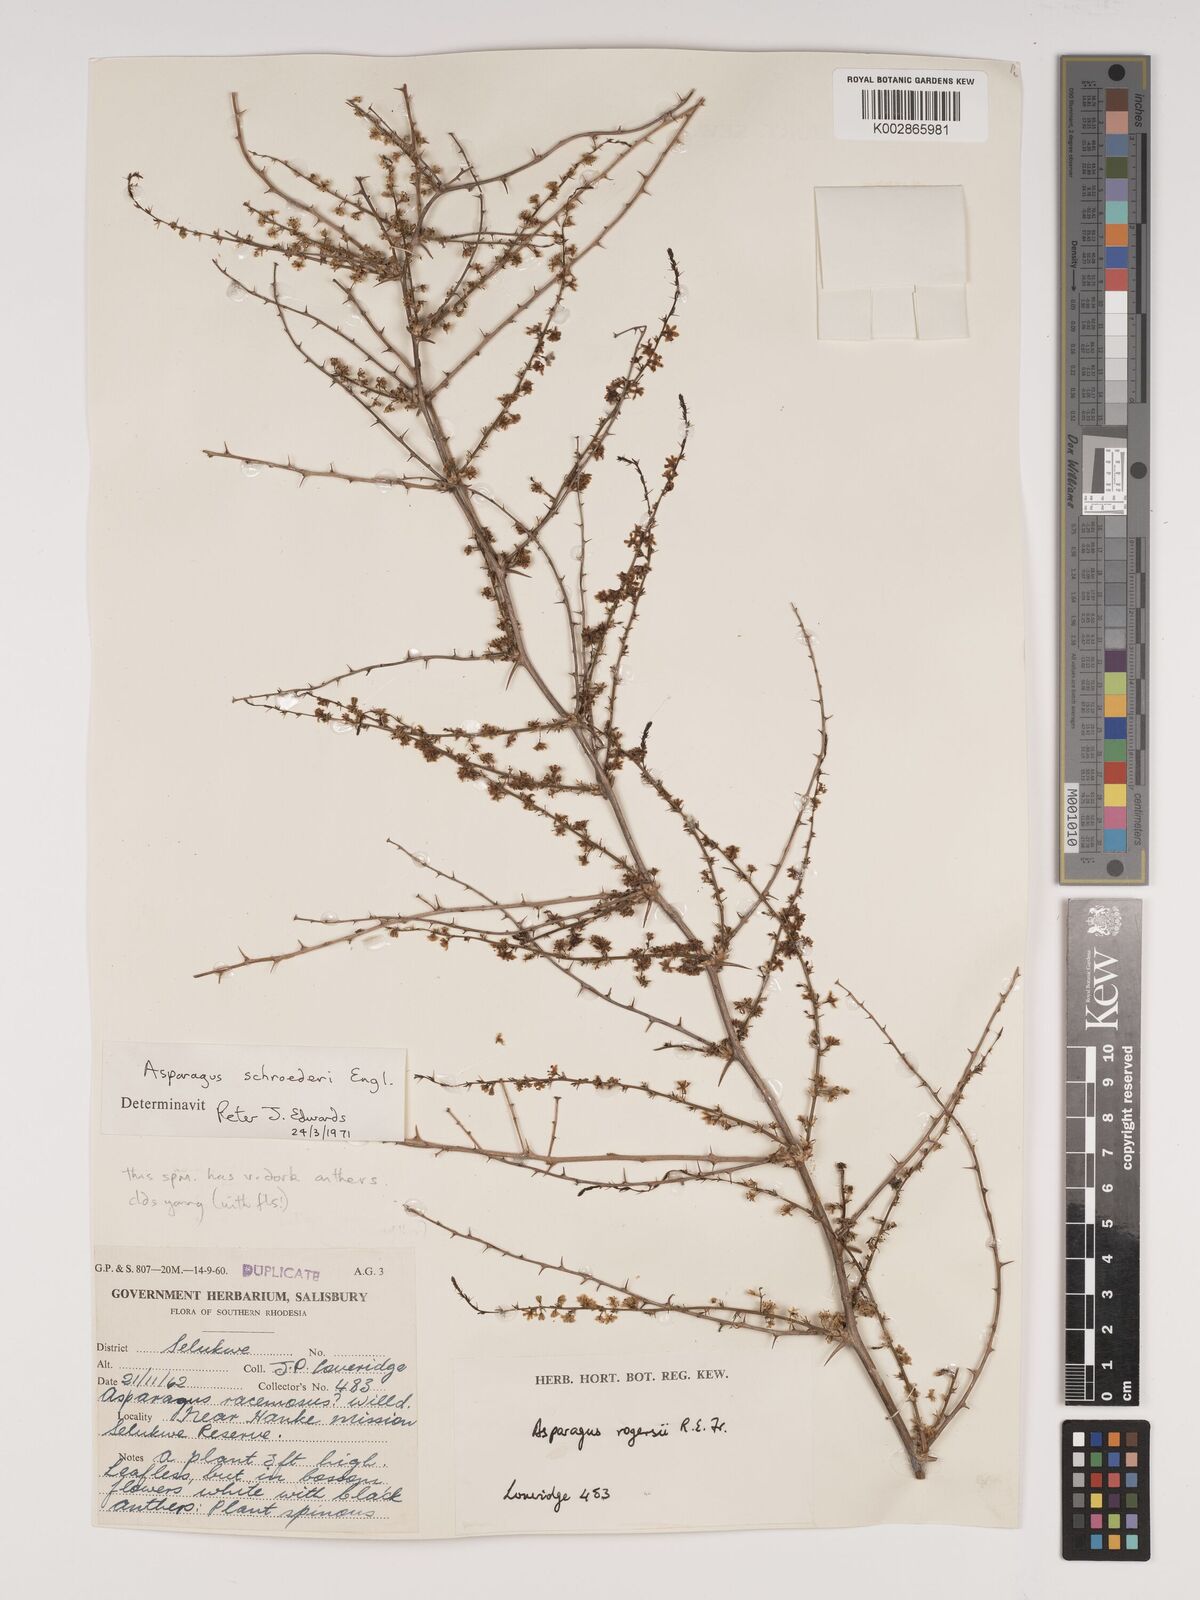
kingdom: Plantae
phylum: Tracheophyta
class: Liliopsida
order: Asparagales
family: Asparagaceae
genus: Asparagus
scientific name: Asparagus schroederi
